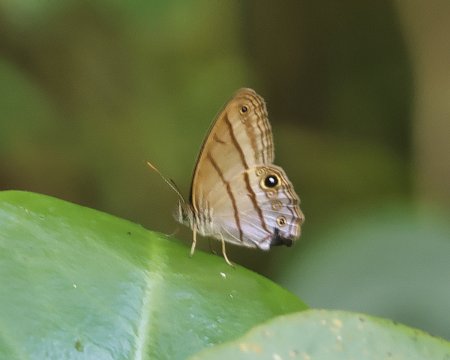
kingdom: Animalia
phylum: Arthropoda
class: Insecta
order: Lepidoptera
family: Nymphalidae
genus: Chloreuptychia
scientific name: Chloreuptychia arnaca
